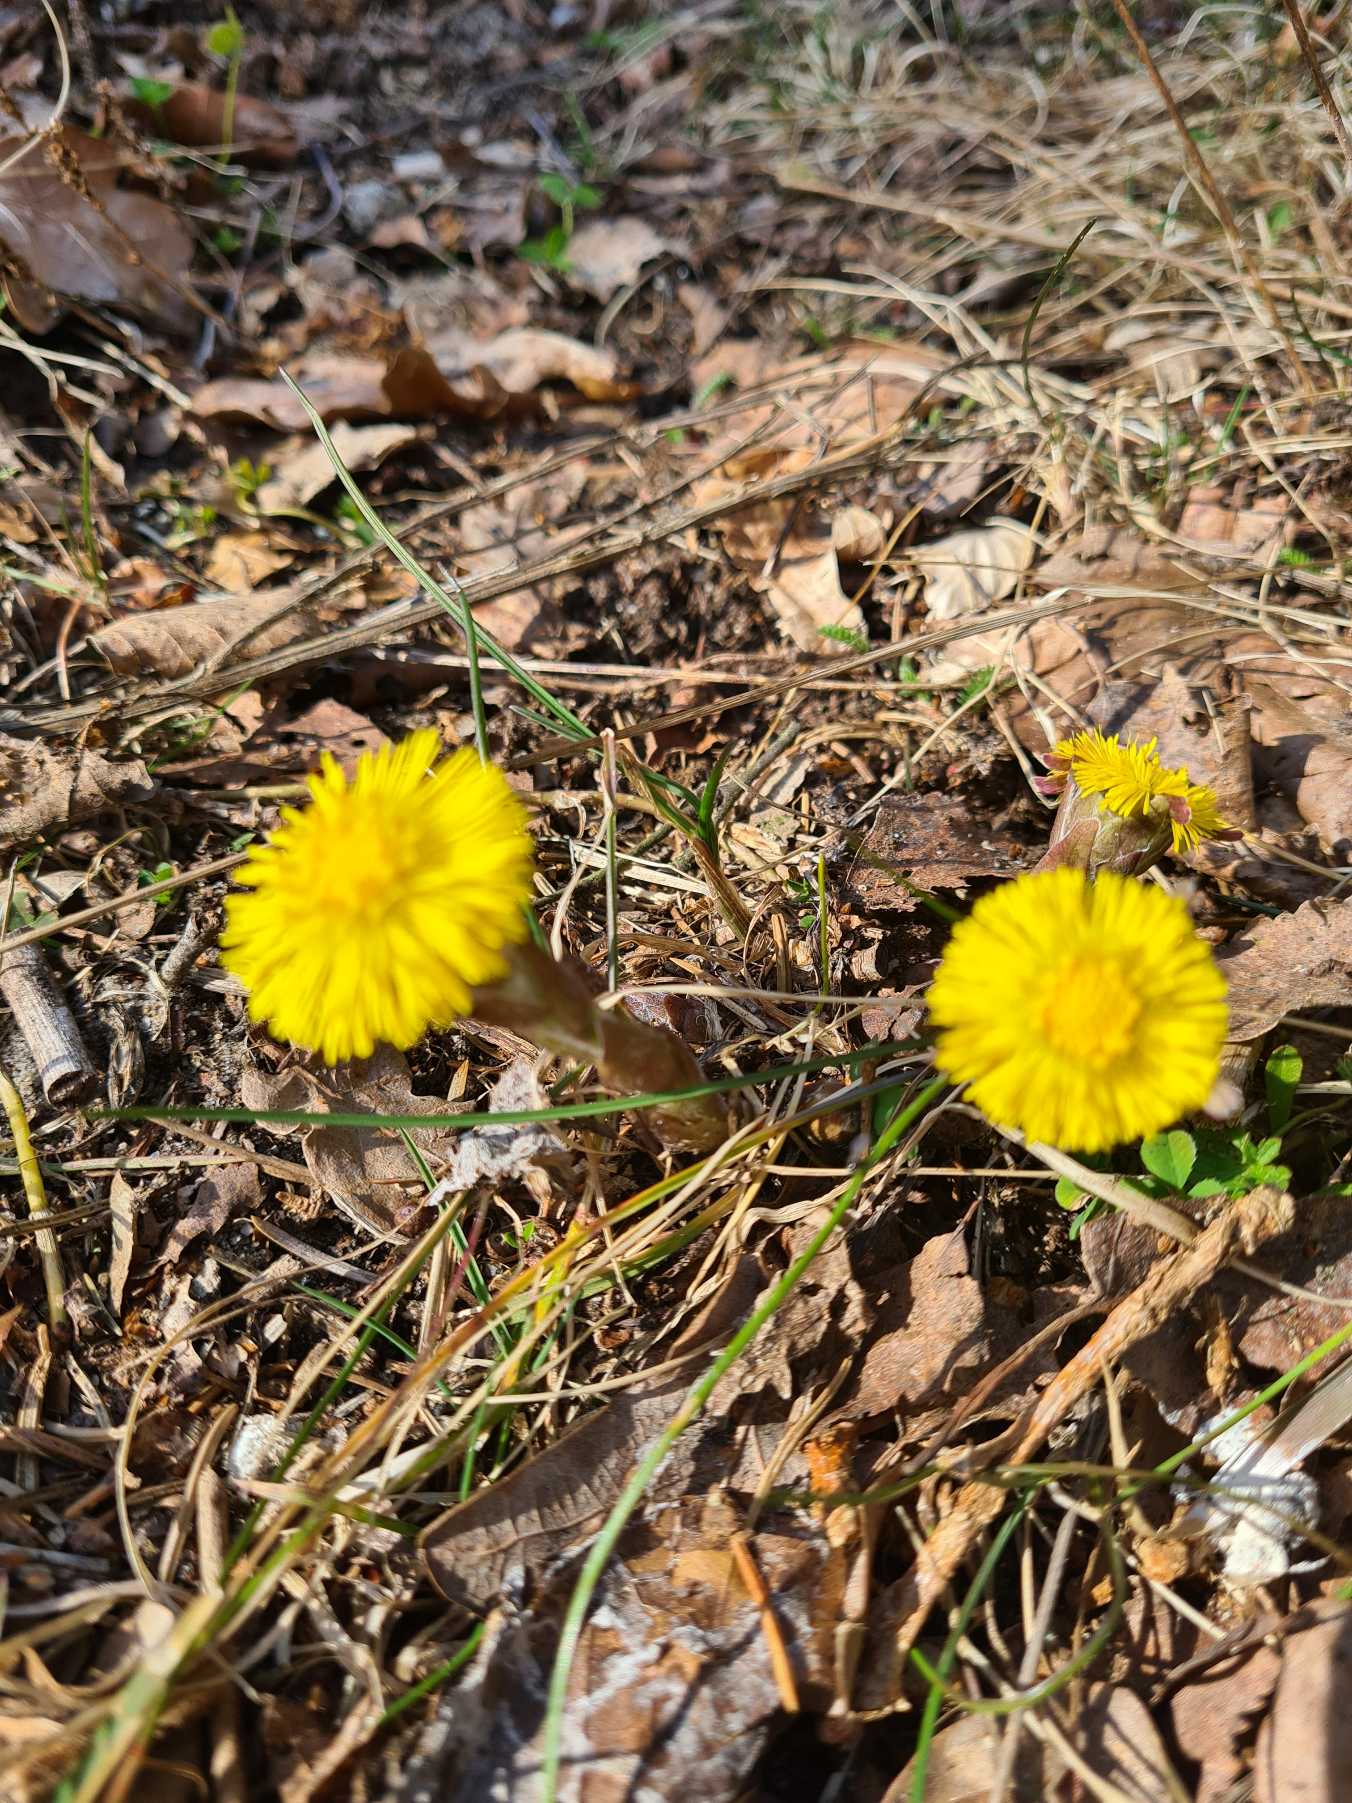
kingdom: Plantae
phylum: Tracheophyta
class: Magnoliopsida
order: Asterales
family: Asteraceae
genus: Tussilago
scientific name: Tussilago farfara
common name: Følfod
